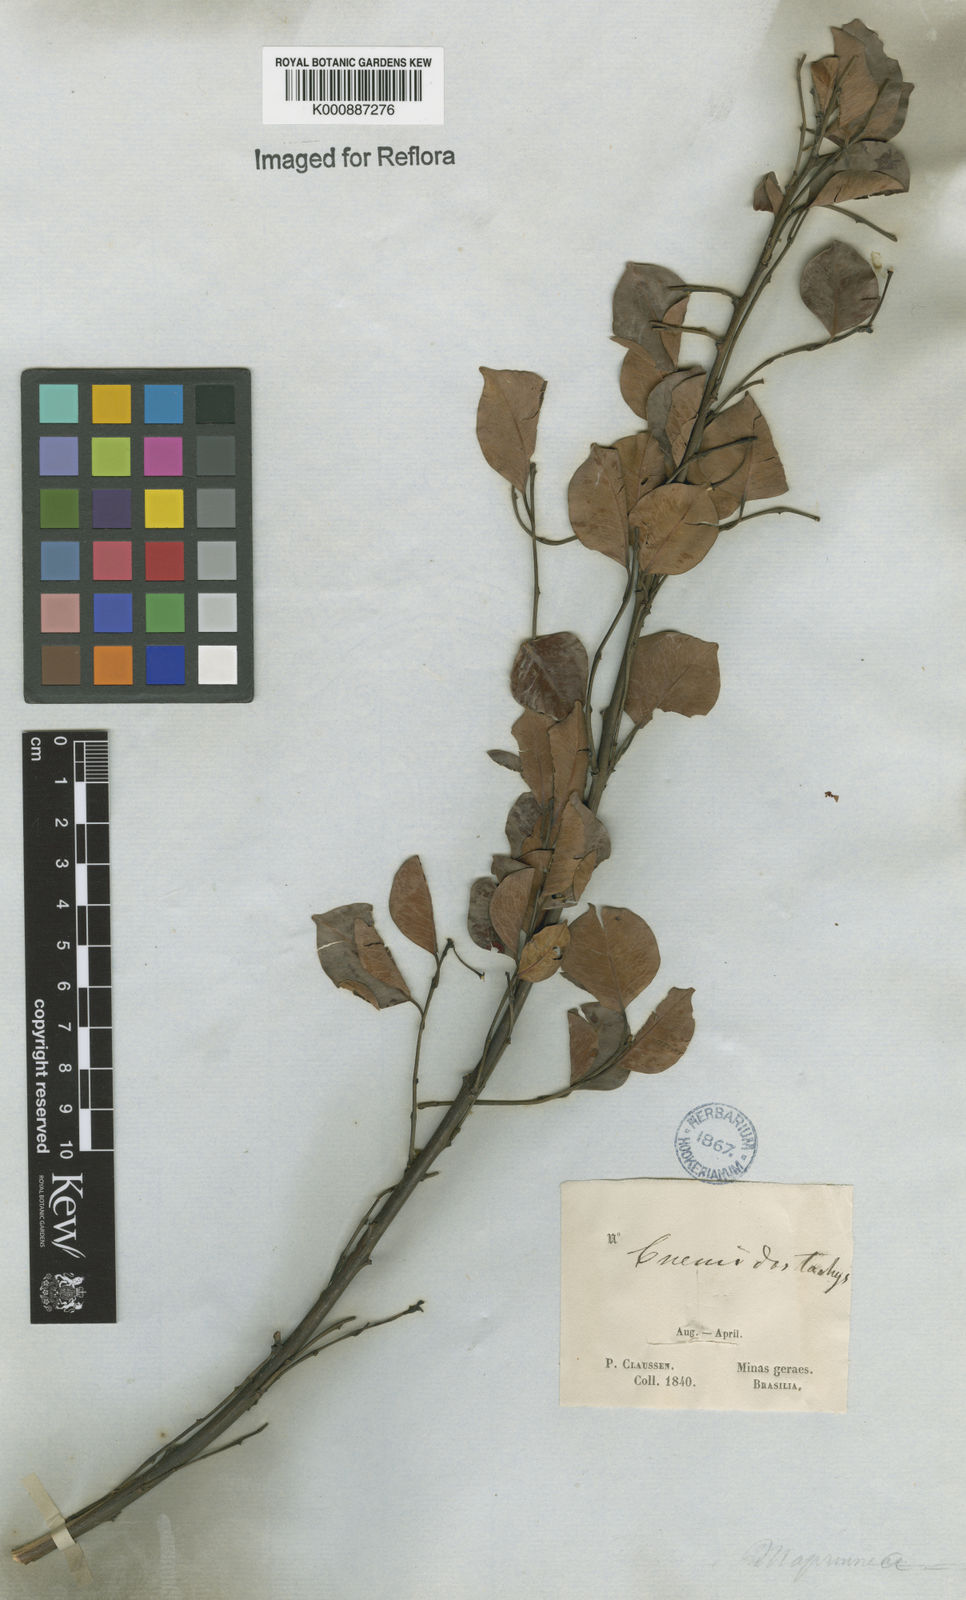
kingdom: Plantae
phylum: Tracheophyta
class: Magnoliopsida
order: Malpighiales
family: Euphorbiaceae
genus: Maprounea
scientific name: Maprounea guianensis
